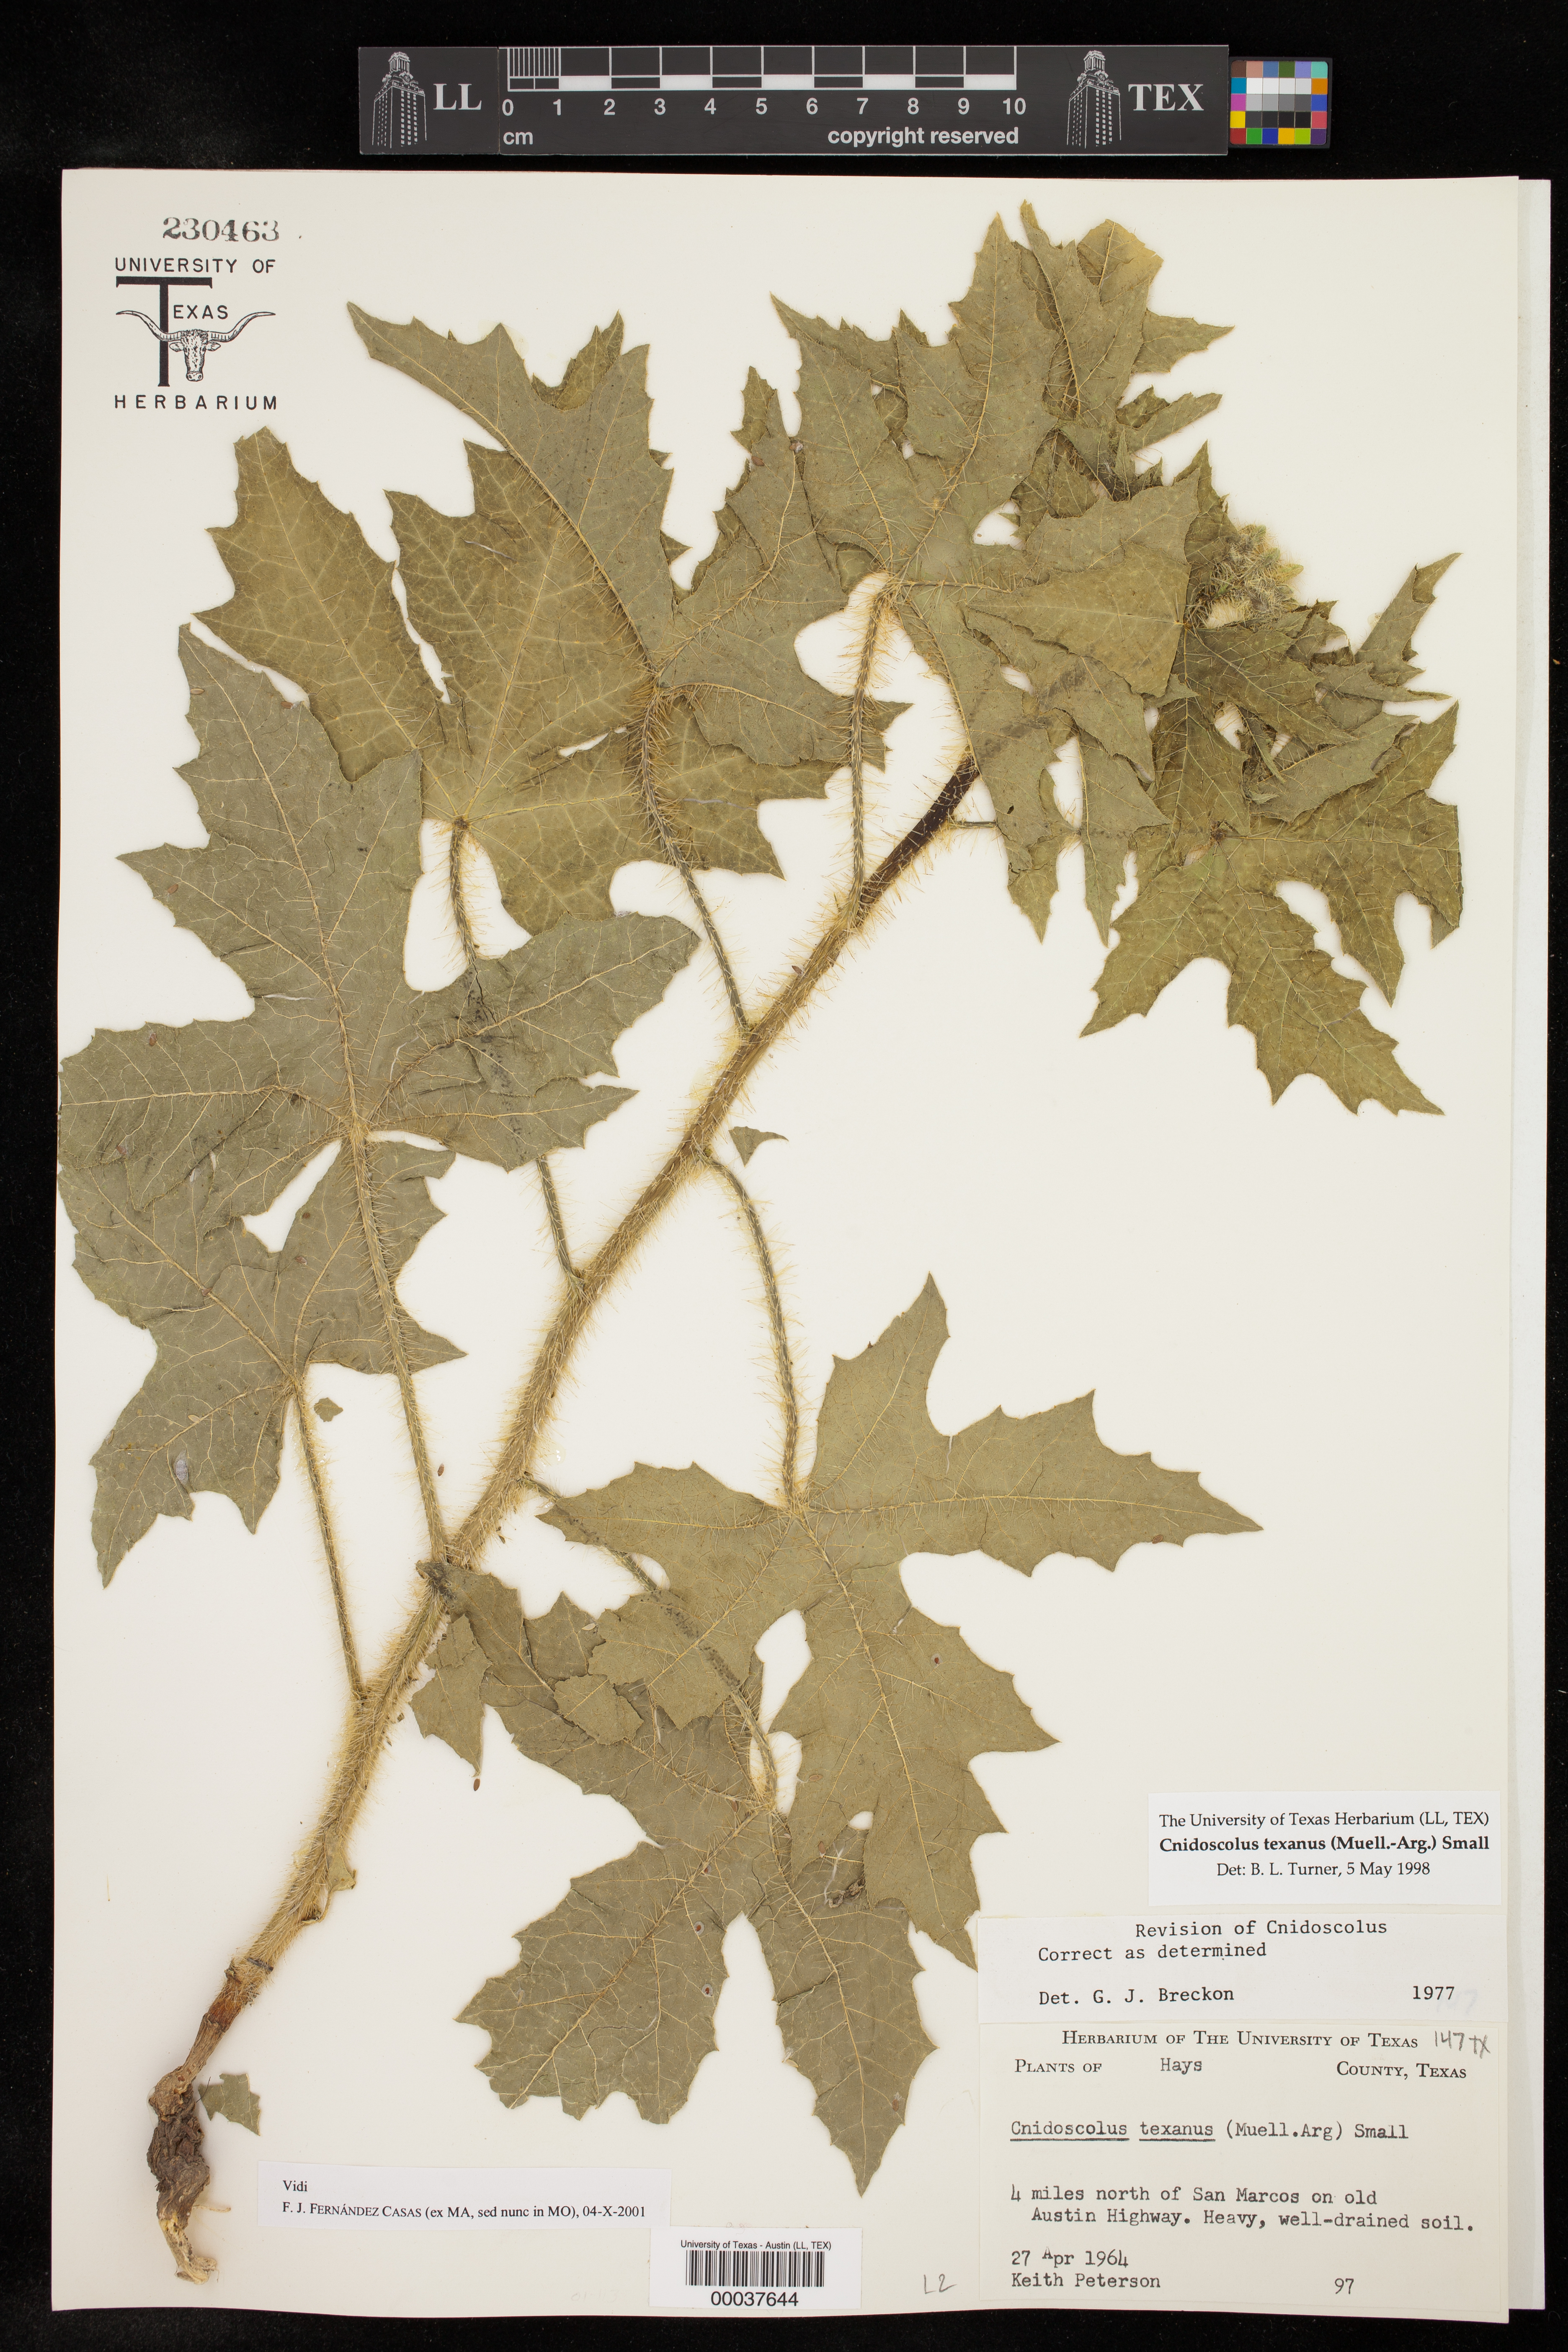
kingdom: Plantae
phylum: Tracheophyta
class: Magnoliopsida
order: Malpighiales
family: Euphorbiaceae
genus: Cnidoscolus
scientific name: Cnidoscolus texanus
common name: Texas bull-nettle
